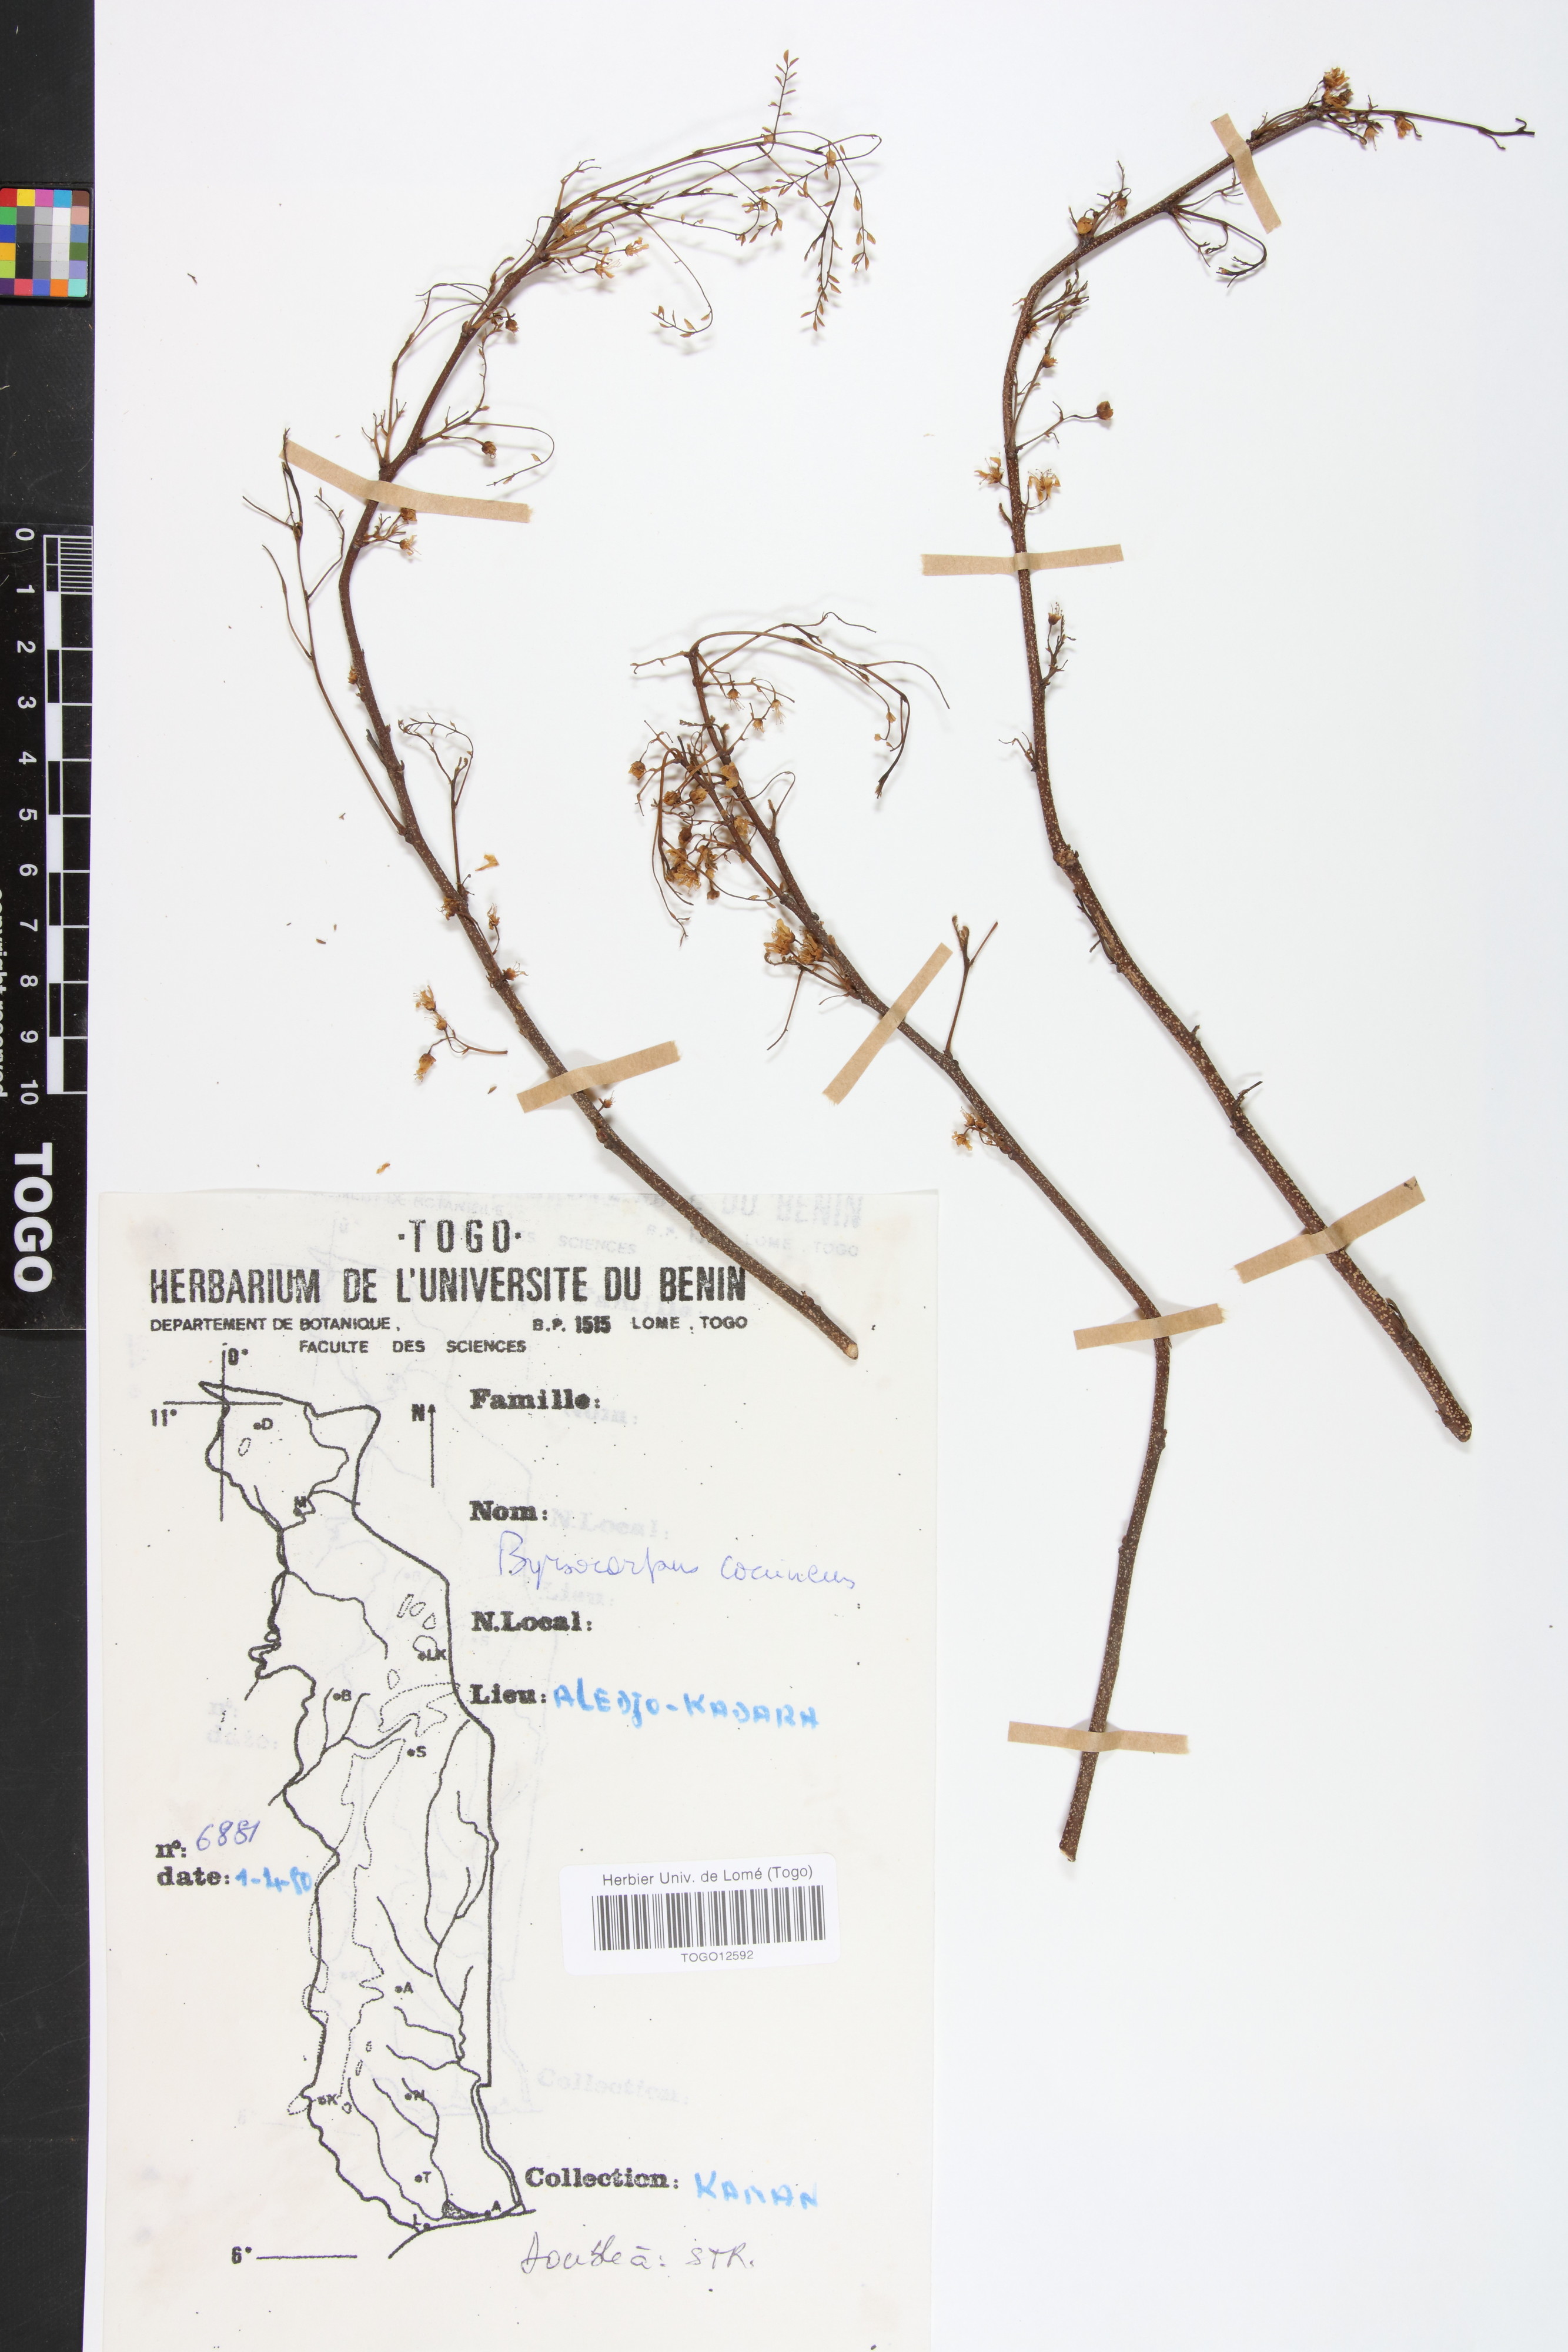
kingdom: Plantae
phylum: Tracheophyta
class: Magnoliopsida
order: Oxalidales
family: Connaraceae
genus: Rourea
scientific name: Rourea coccinea
